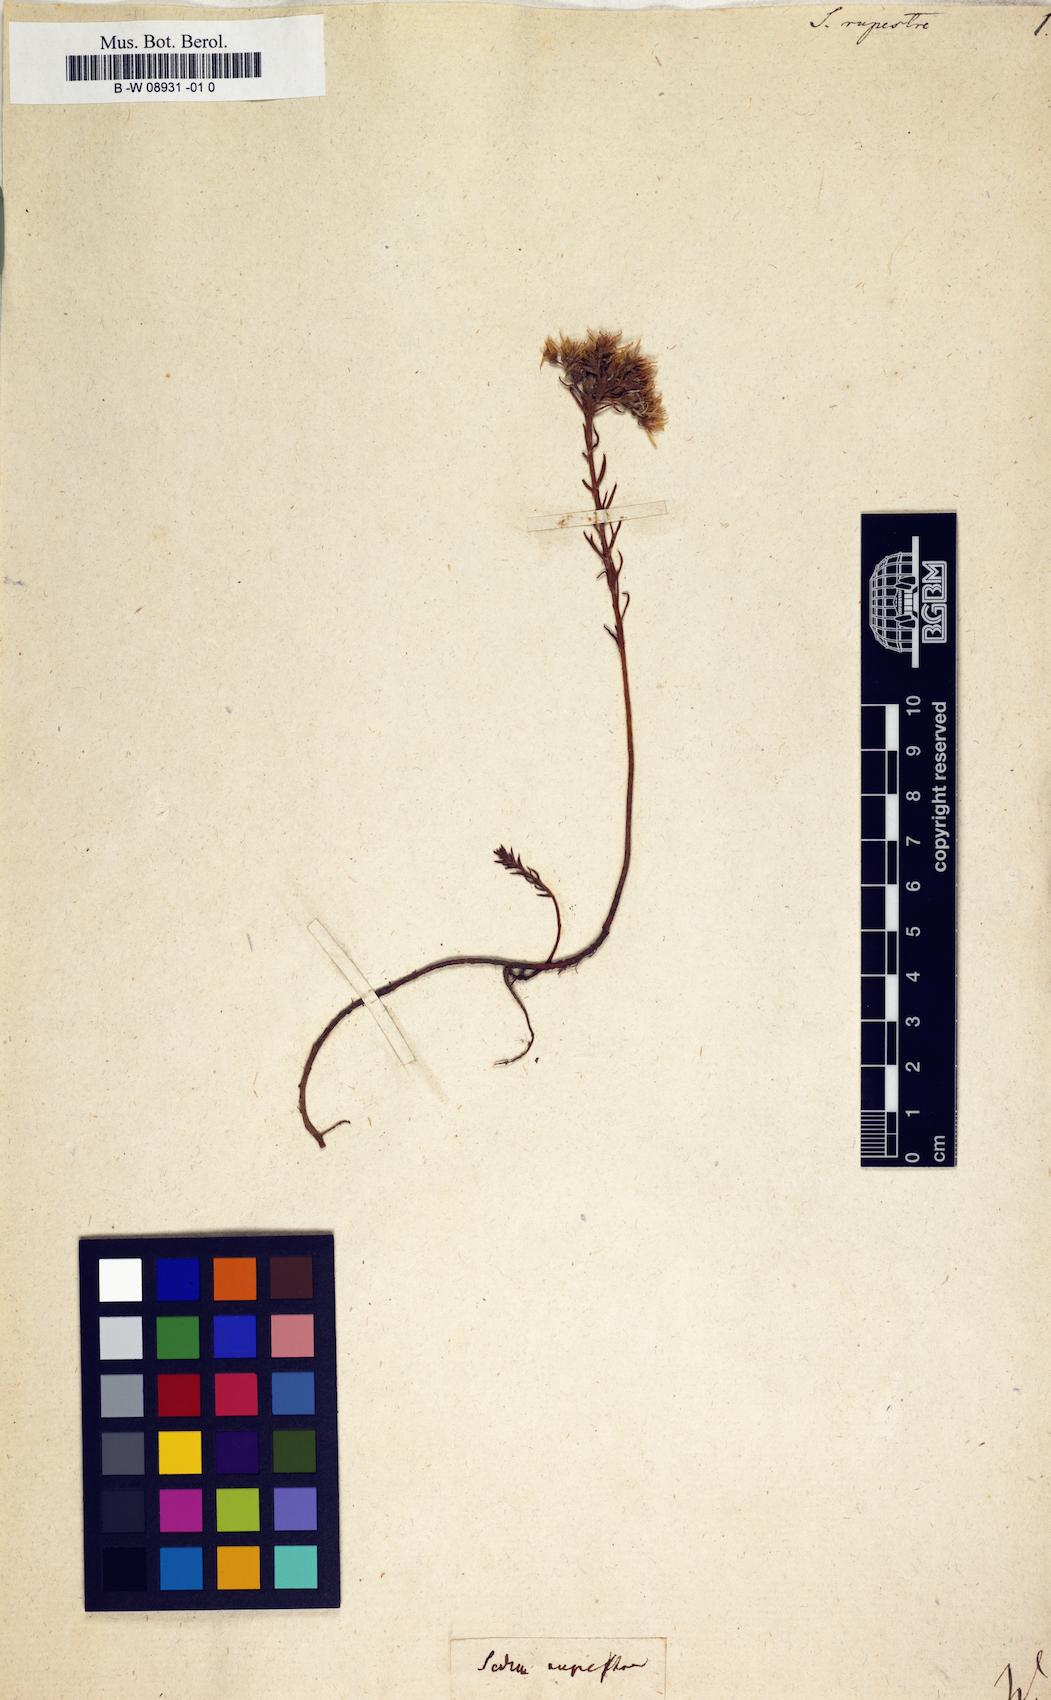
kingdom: Plantae
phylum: Tracheophyta
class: Magnoliopsida
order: Saxifragales
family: Crassulaceae
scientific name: Crassulaceae
